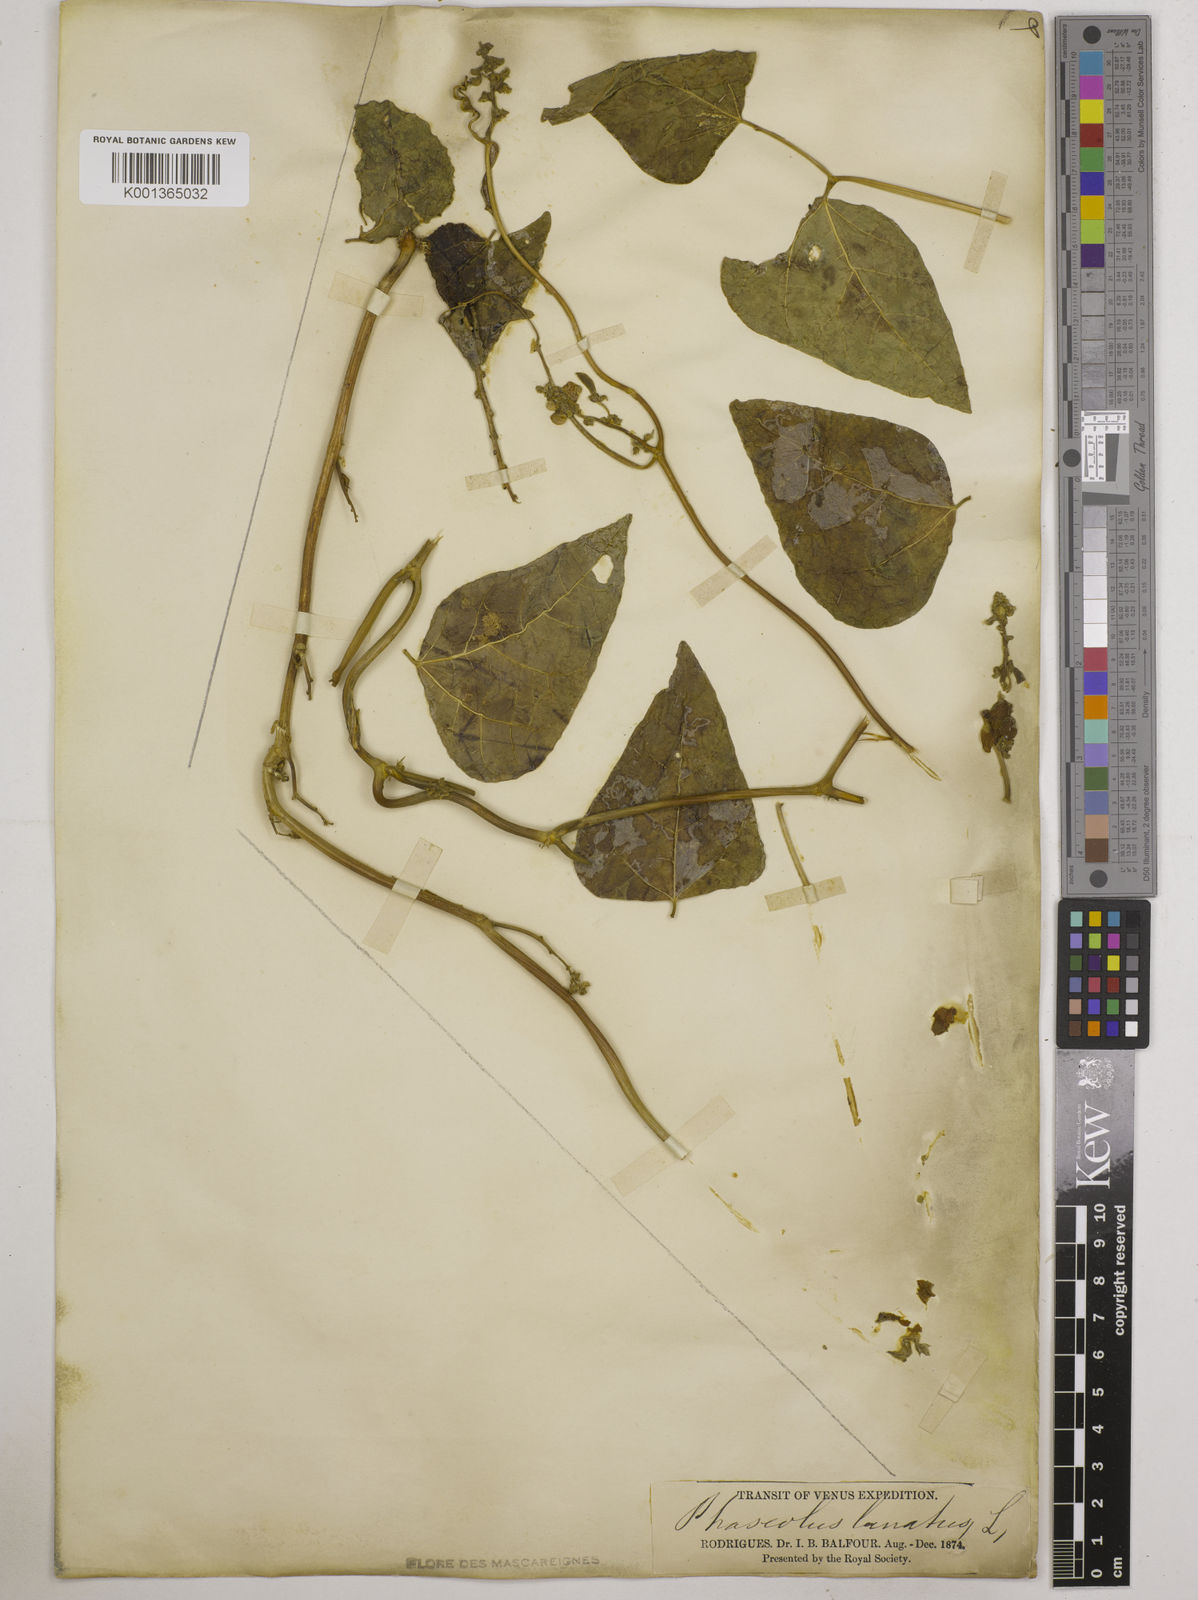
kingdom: Plantae
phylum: Tracheophyta
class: Magnoliopsida
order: Fabales
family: Fabaceae
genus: Phaseolus
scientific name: Phaseolus lunatus
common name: Sieva bean
